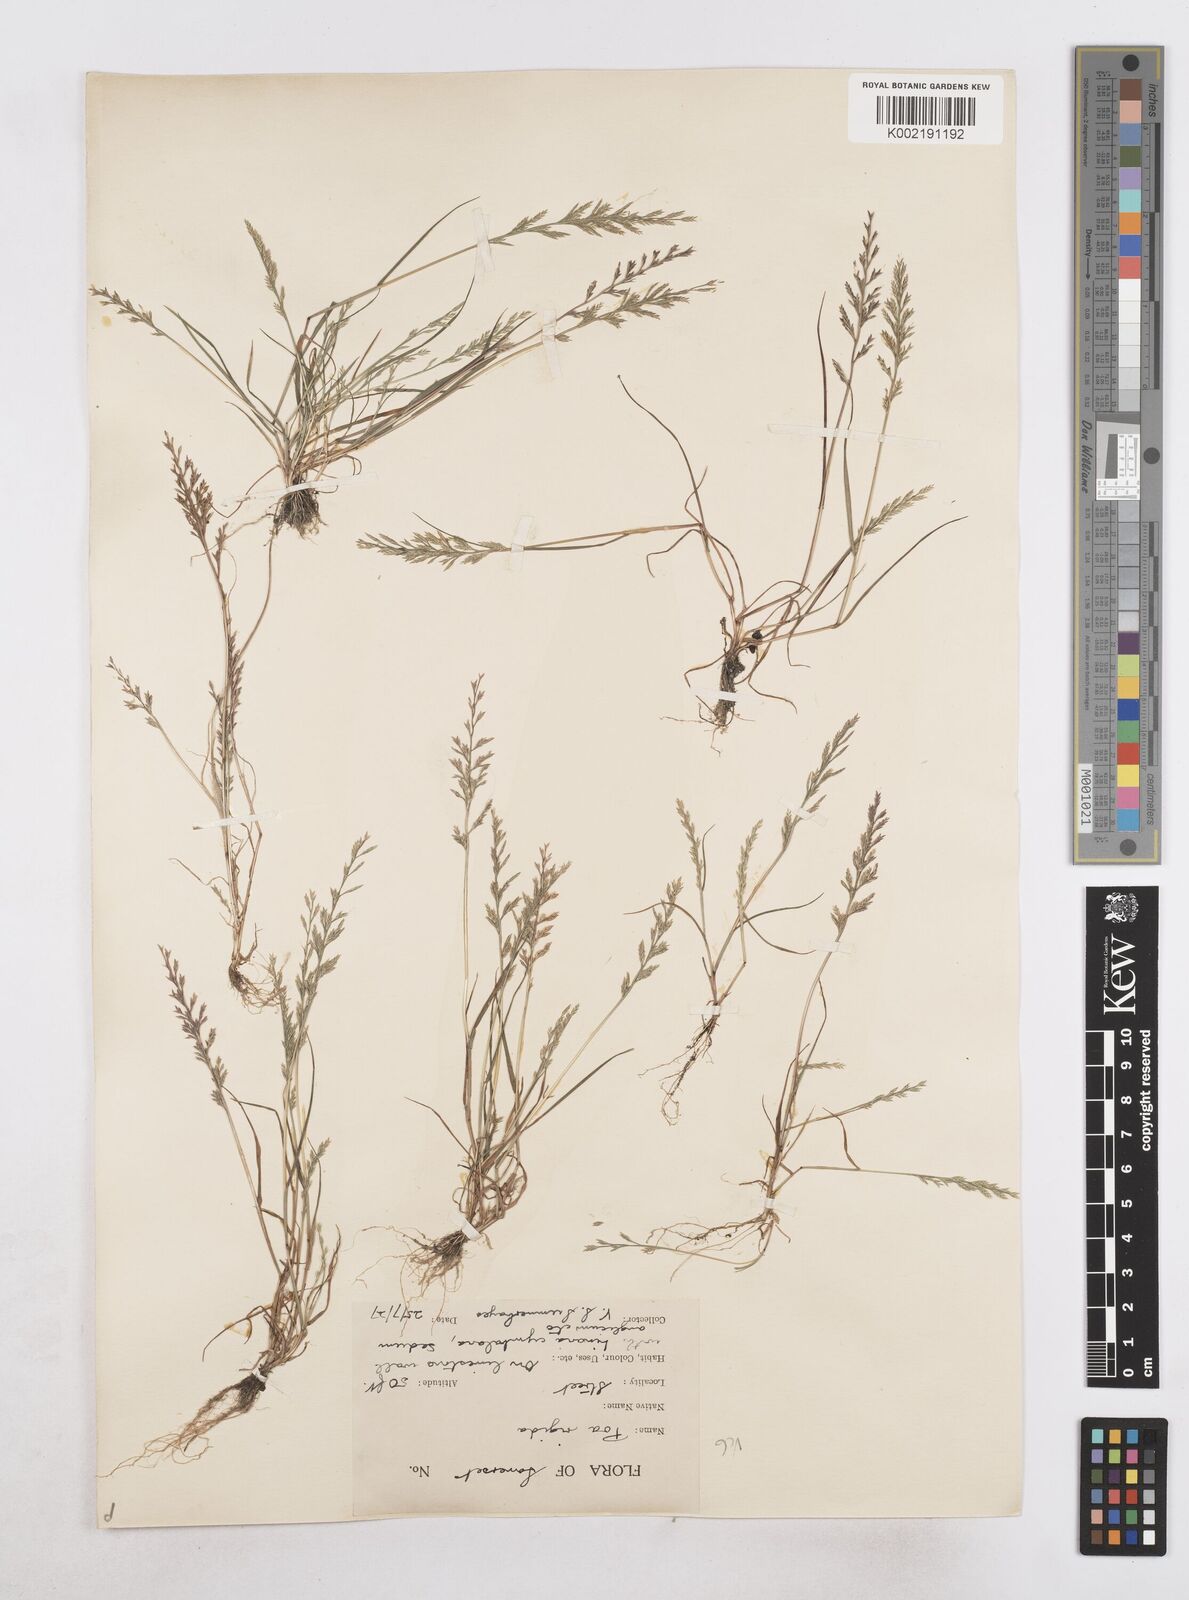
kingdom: Plantae
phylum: Tracheophyta
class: Liliopsida
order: Poales
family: Poaceae
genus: Catapodium
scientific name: Catapodium rigidum
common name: Fern-grass
